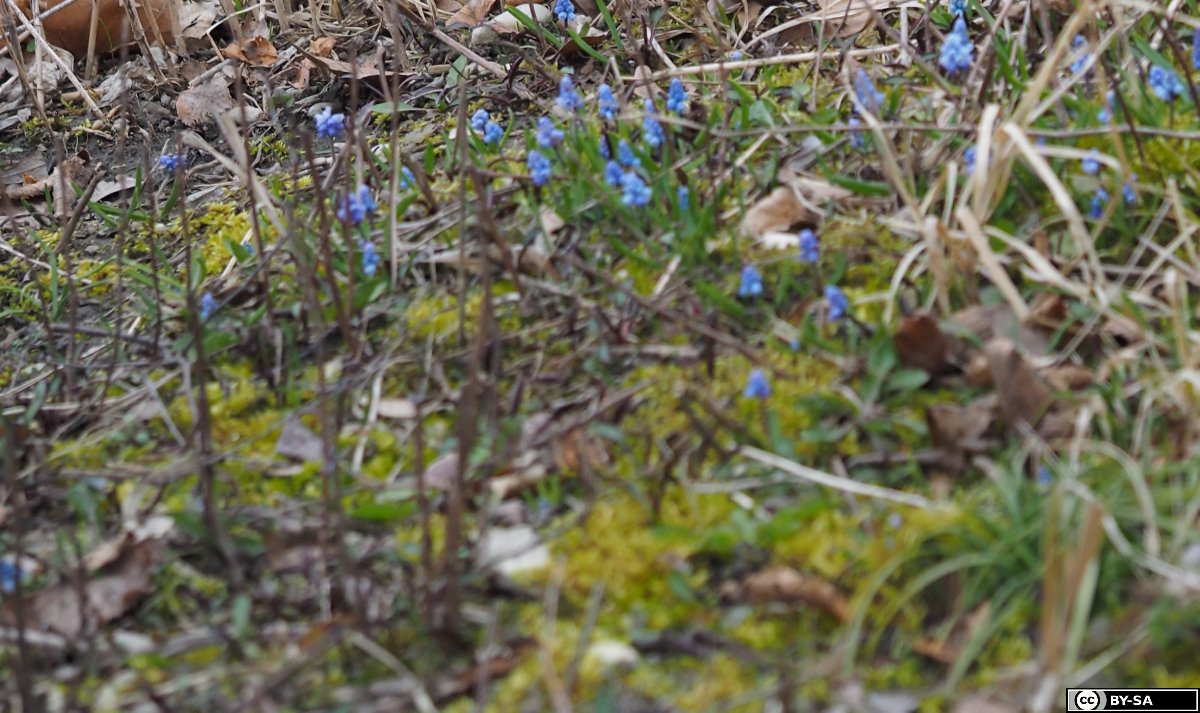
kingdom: Plantae
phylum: Tracheophyta
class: Liliopsida
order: Asparagales
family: Asparagaceae
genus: Muscari
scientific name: Muscari azureum
